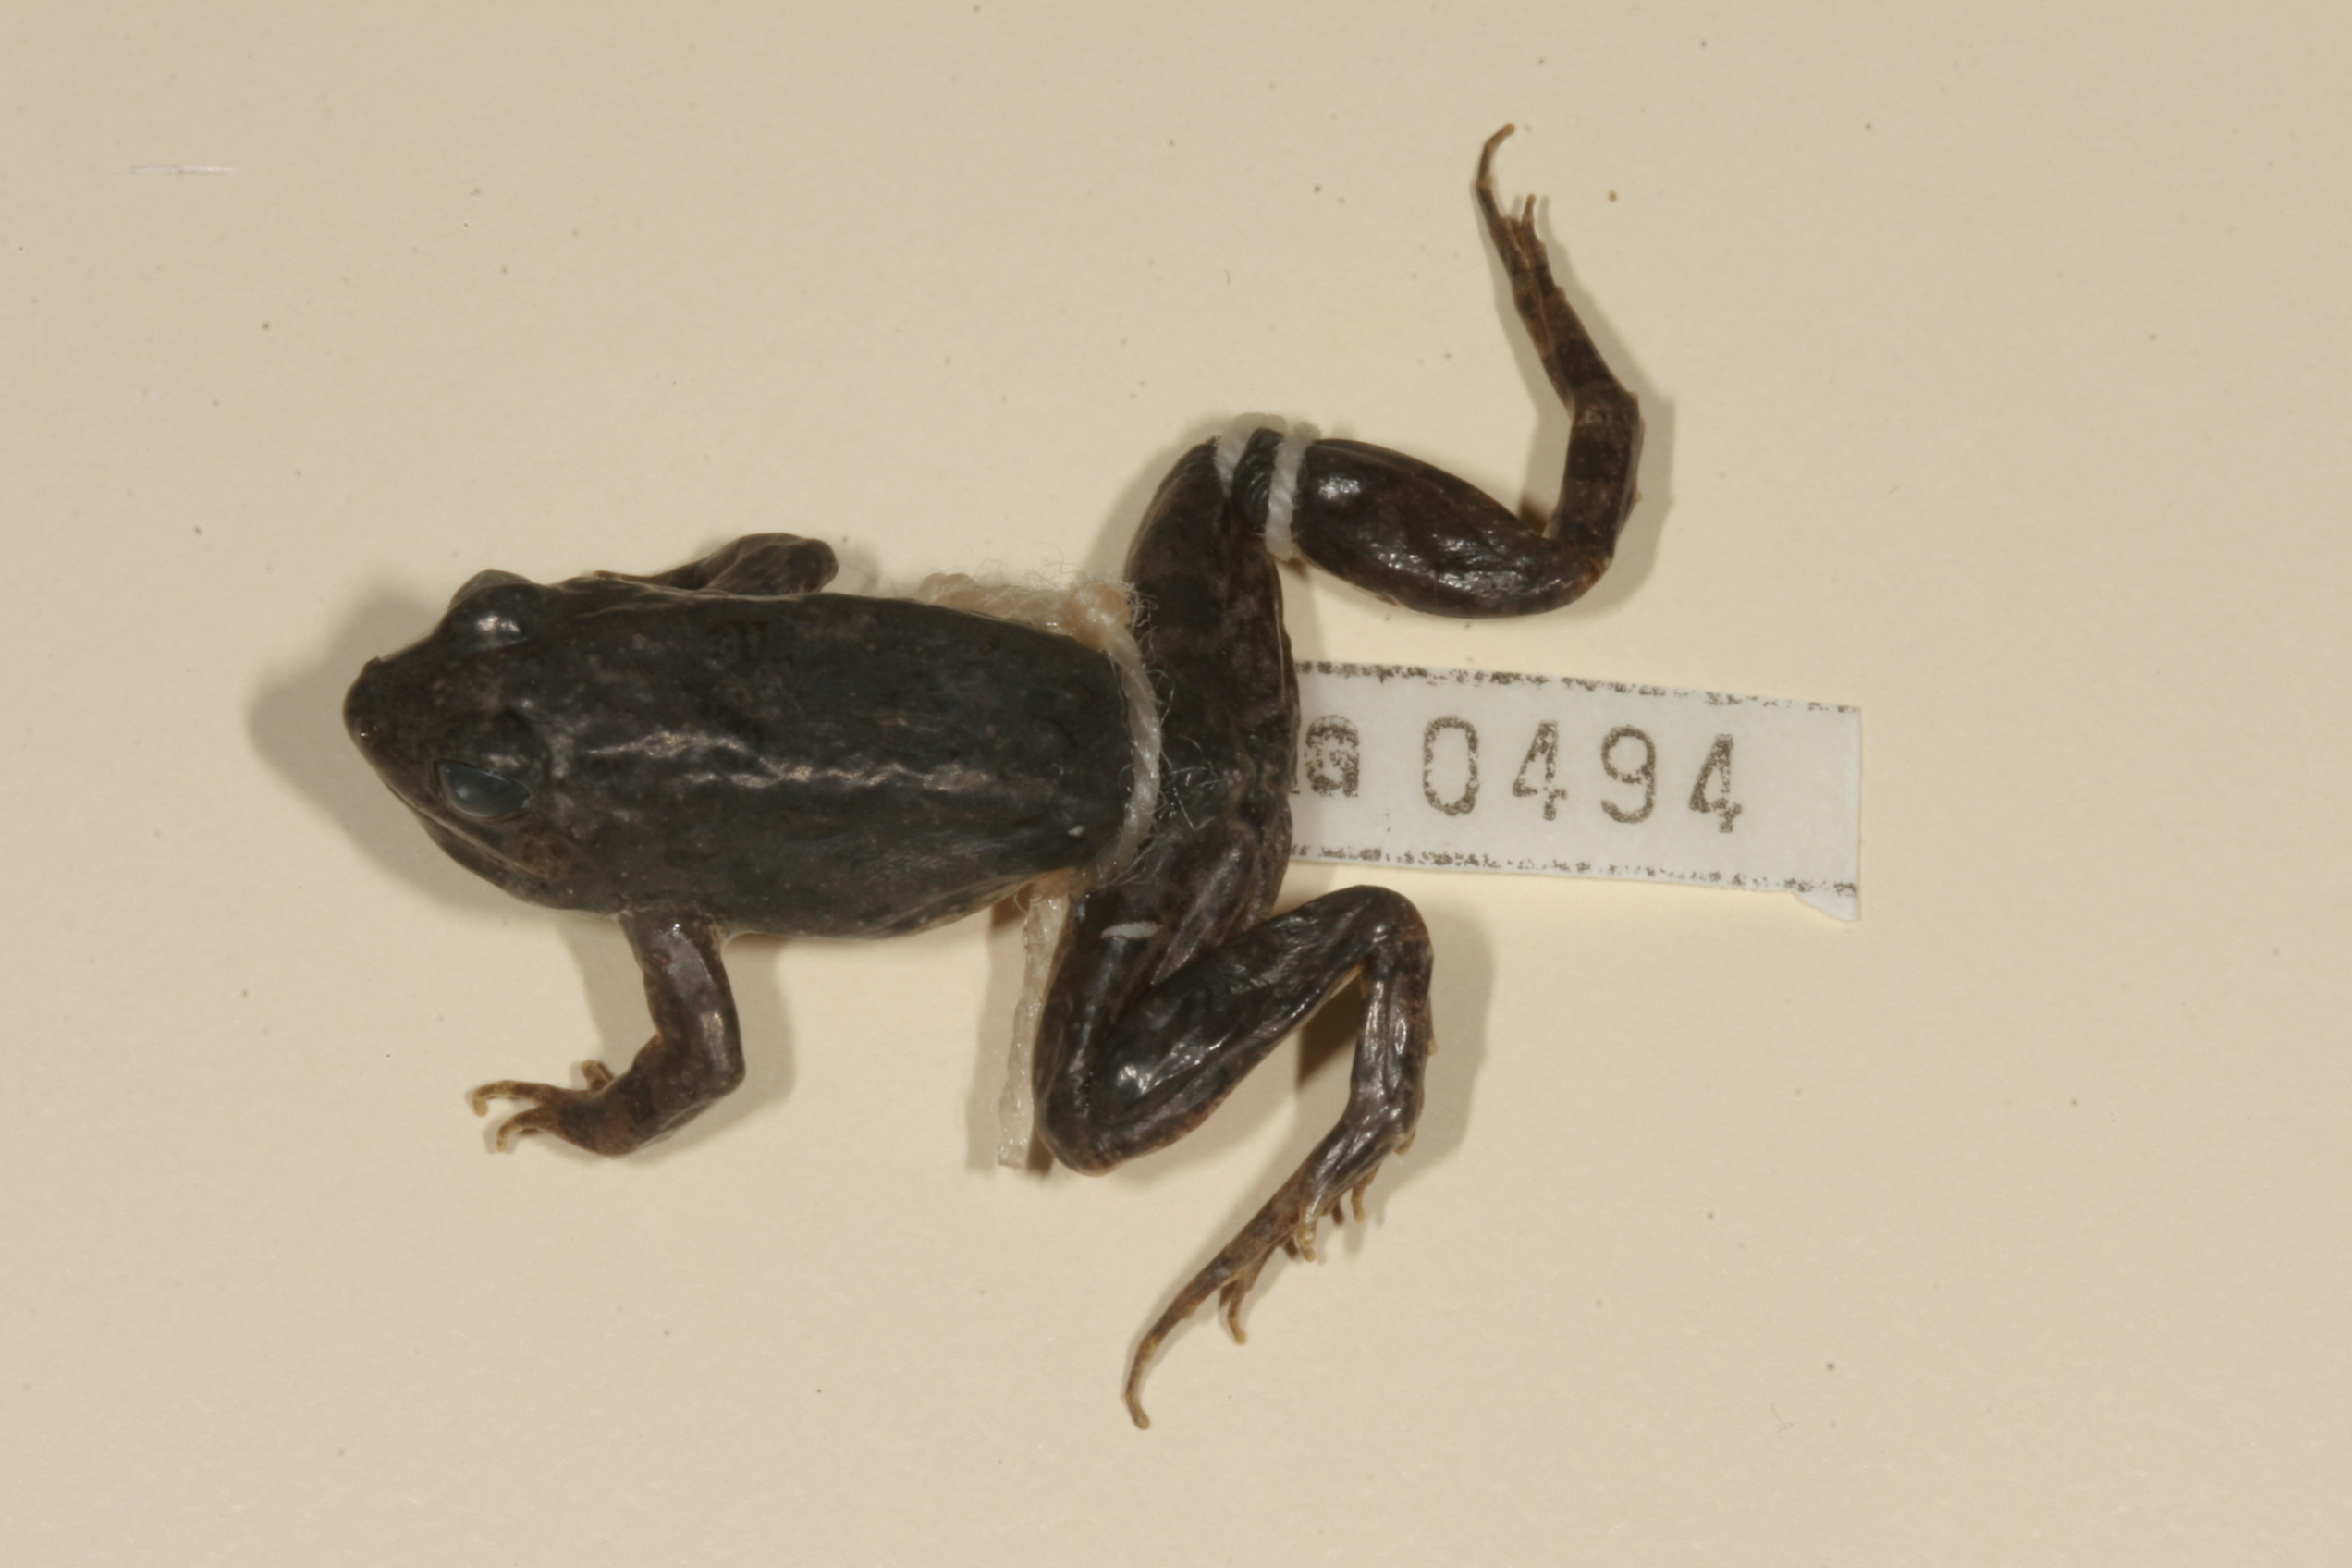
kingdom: Animalia
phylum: Chordata
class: Amphibia
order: Anura
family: Pyxicephalidae
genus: Amietia
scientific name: Amietia fuscigula
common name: Cape rana
